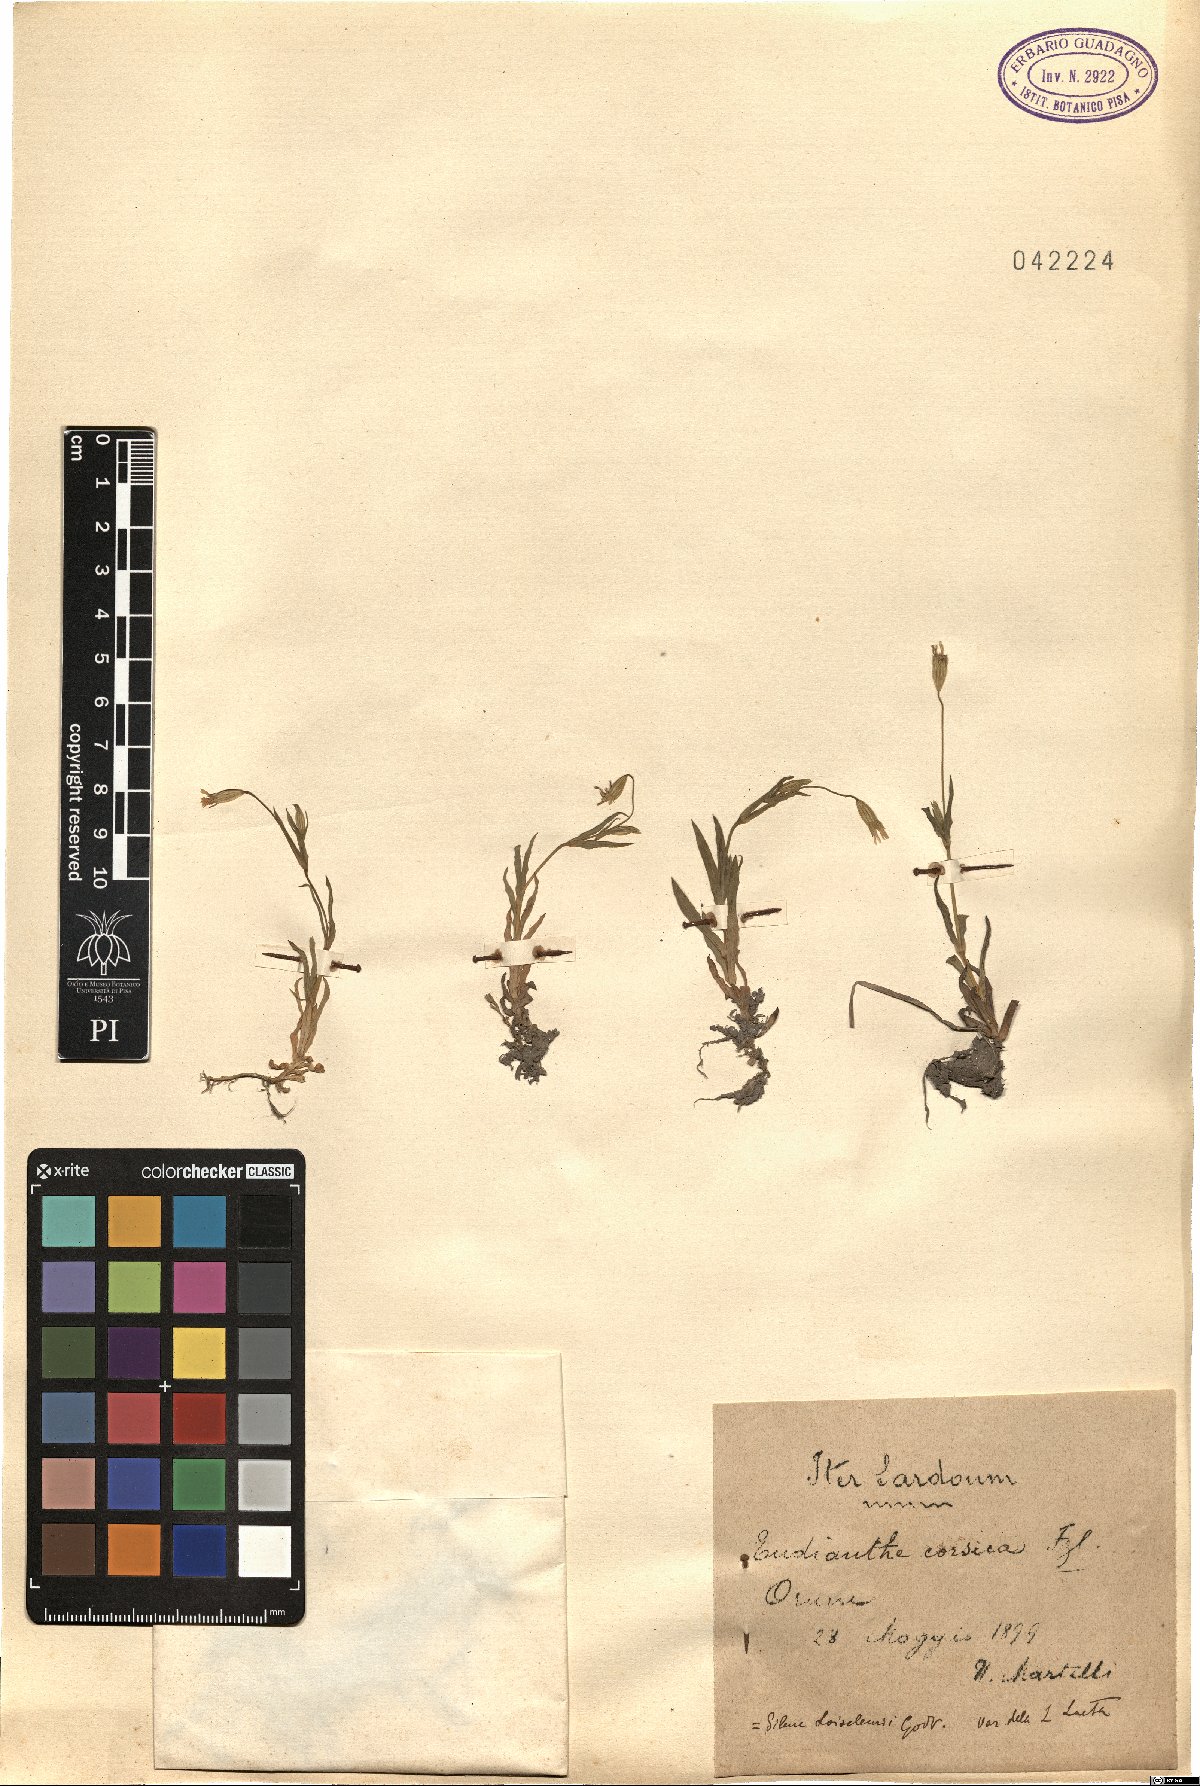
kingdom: Plantae
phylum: Tracheophyta
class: Magnoliopsida
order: Caryophyllales
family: Caryophyllaceae
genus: Eudianthe
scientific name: Eudianthe laeta
